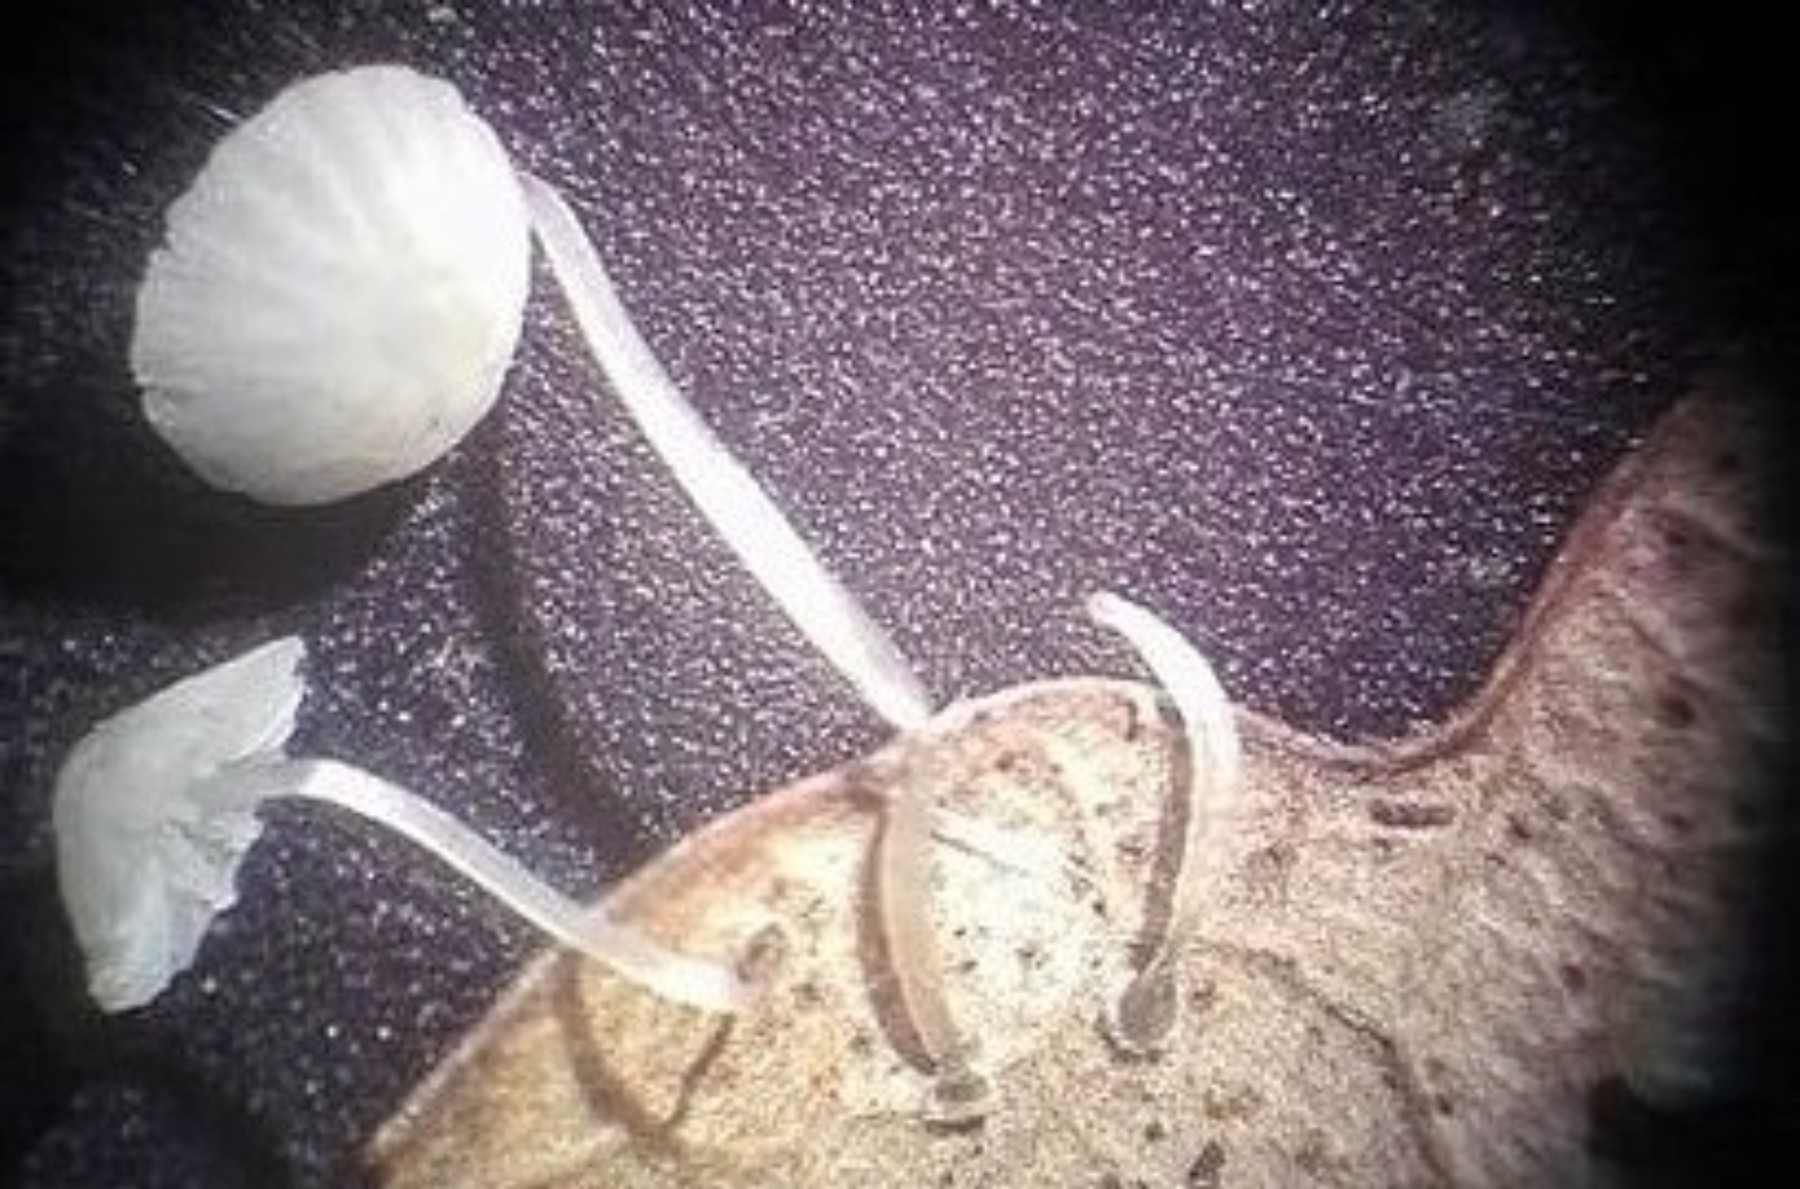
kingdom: Fungi
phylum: Basidiomycota
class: Agaricomycetes
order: Agaricales
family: Mycenaceae
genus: Mycena
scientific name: Mycena mucor
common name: frynseskivet huesvamp
